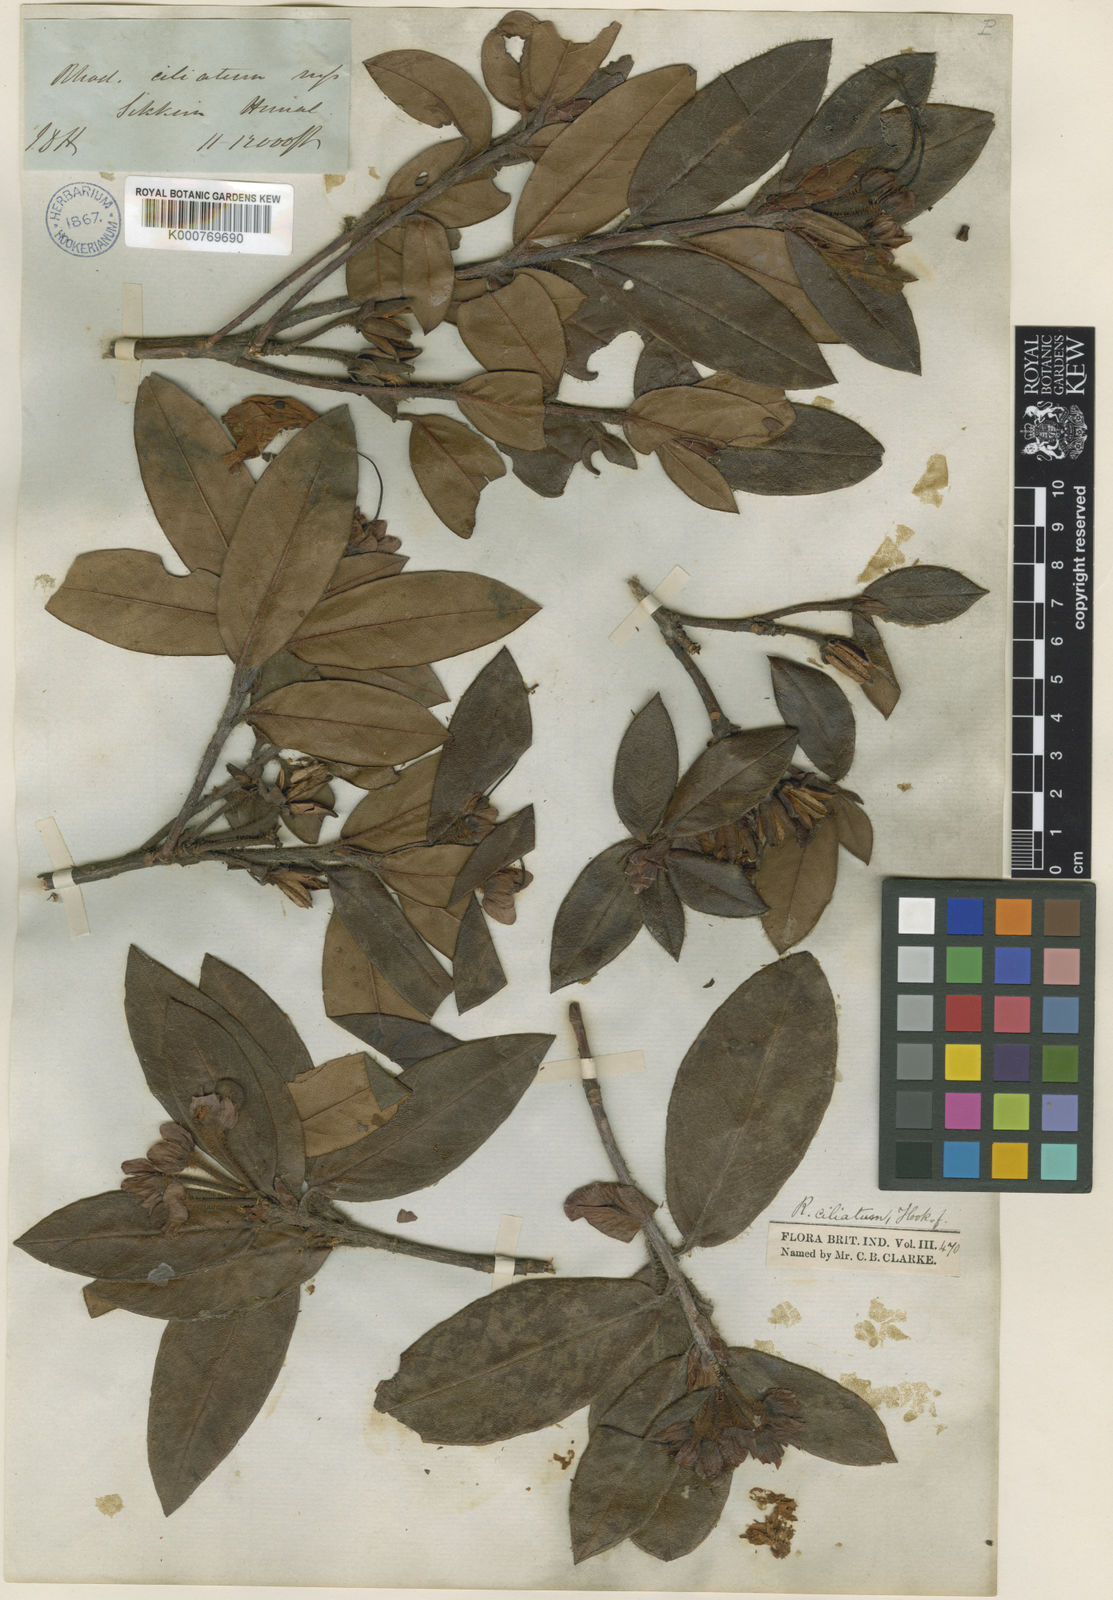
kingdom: Plantae
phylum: Tracheophyta
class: Magnoliopsida
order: Ericales
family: Ericaceae
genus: Rhododendron
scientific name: Rhododendron ciliatum
